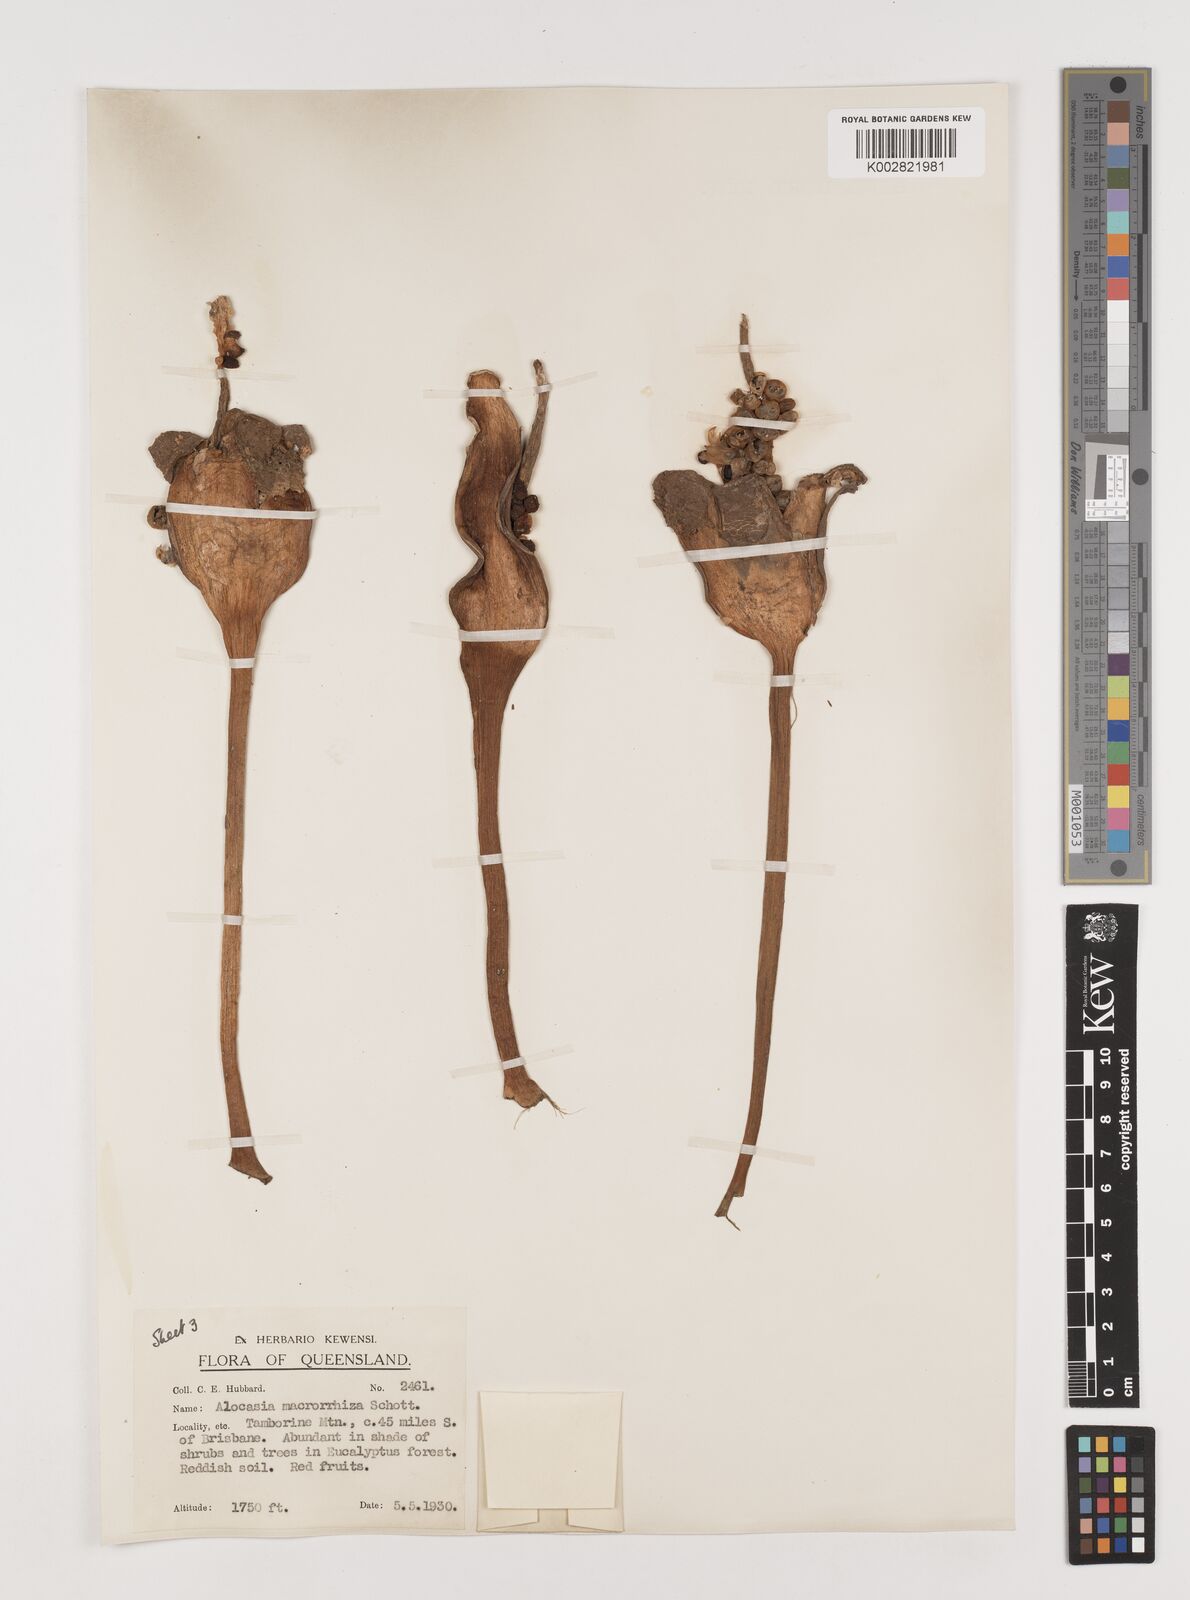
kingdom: Plantae
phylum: Tracheophyta
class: Liliopsida
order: Alismatales
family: Araceae
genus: Alocasia
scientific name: Alocasia brisbanensis
